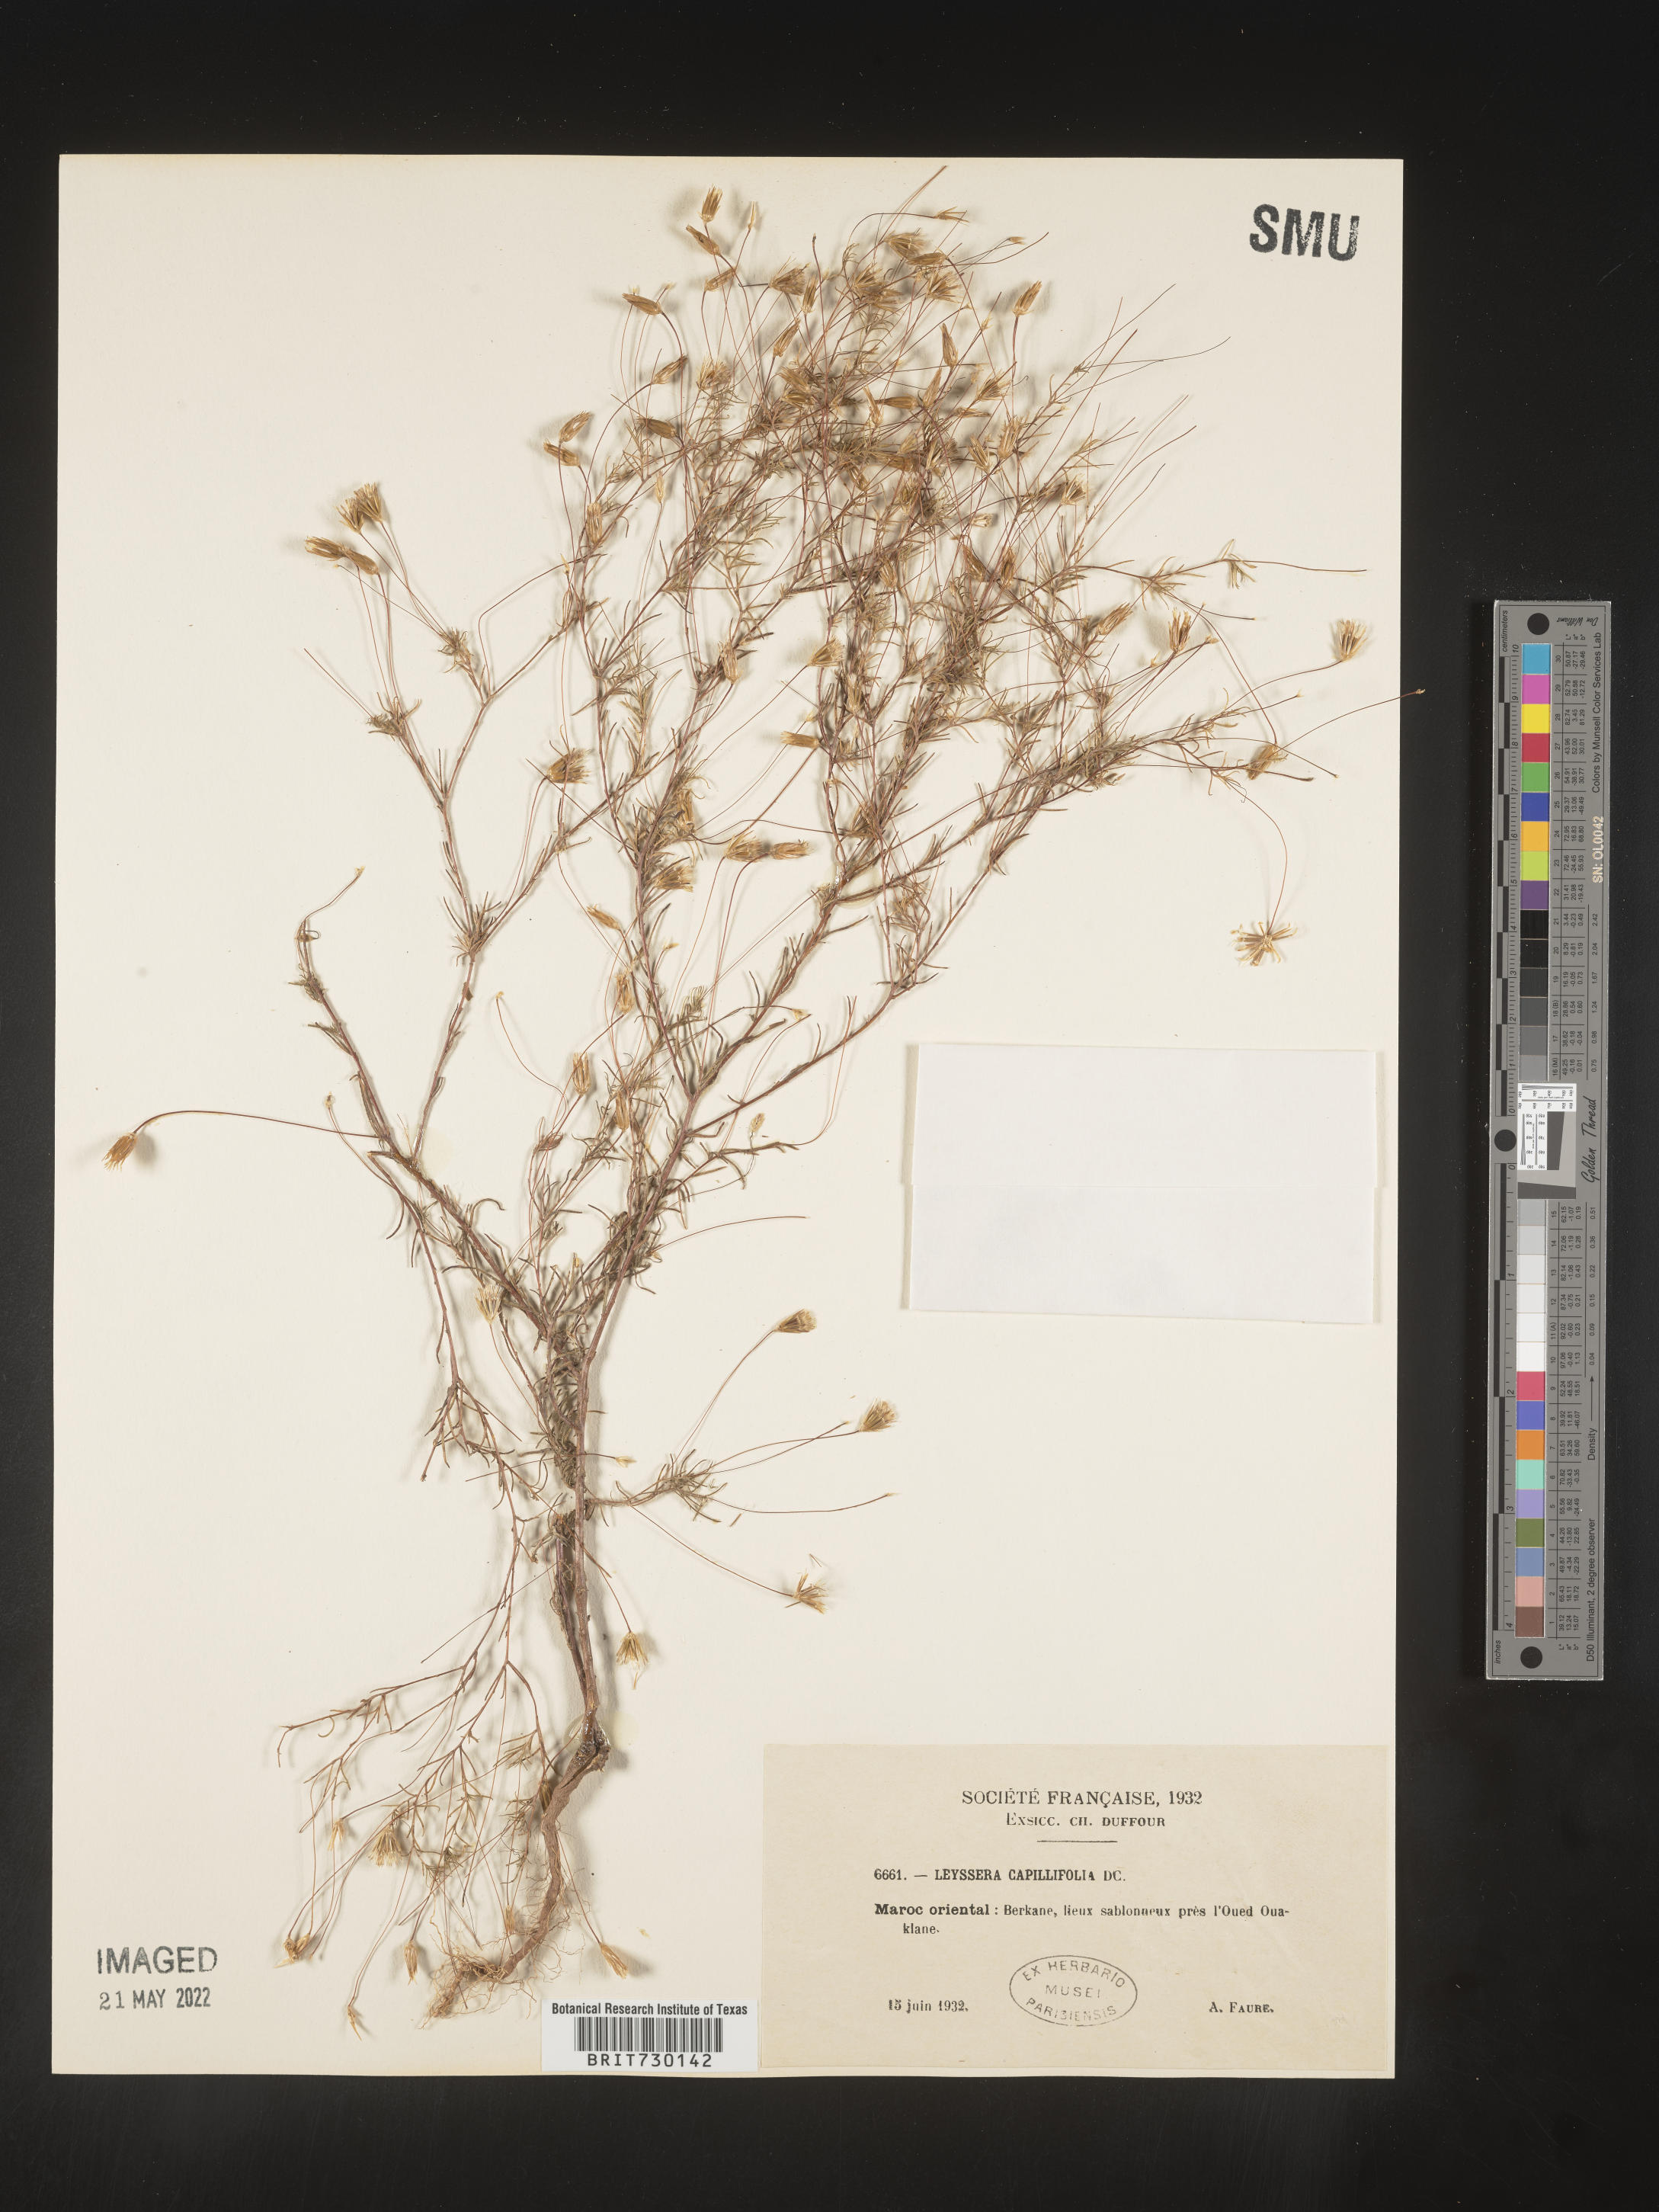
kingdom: Plantae
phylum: Tracheophyta
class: Magnoliopsida
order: Asterales
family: Asteraceae
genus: Leysera
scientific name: Leysera
